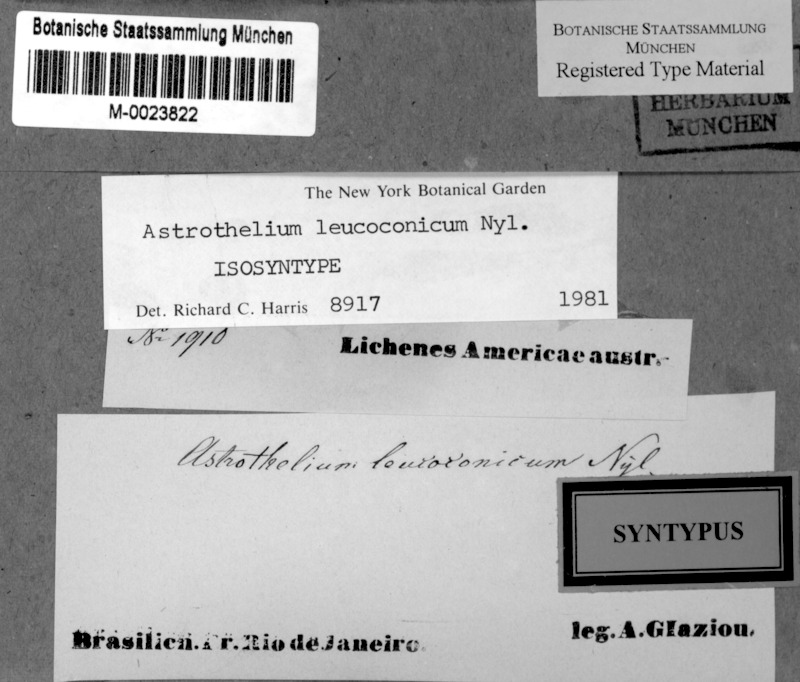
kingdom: Fungi
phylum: Ascomycota
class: Dothideomycetes
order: Trypetheliales
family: Trypetheliaceae
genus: Astrothelium
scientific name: Astrothelium leucoconicum
